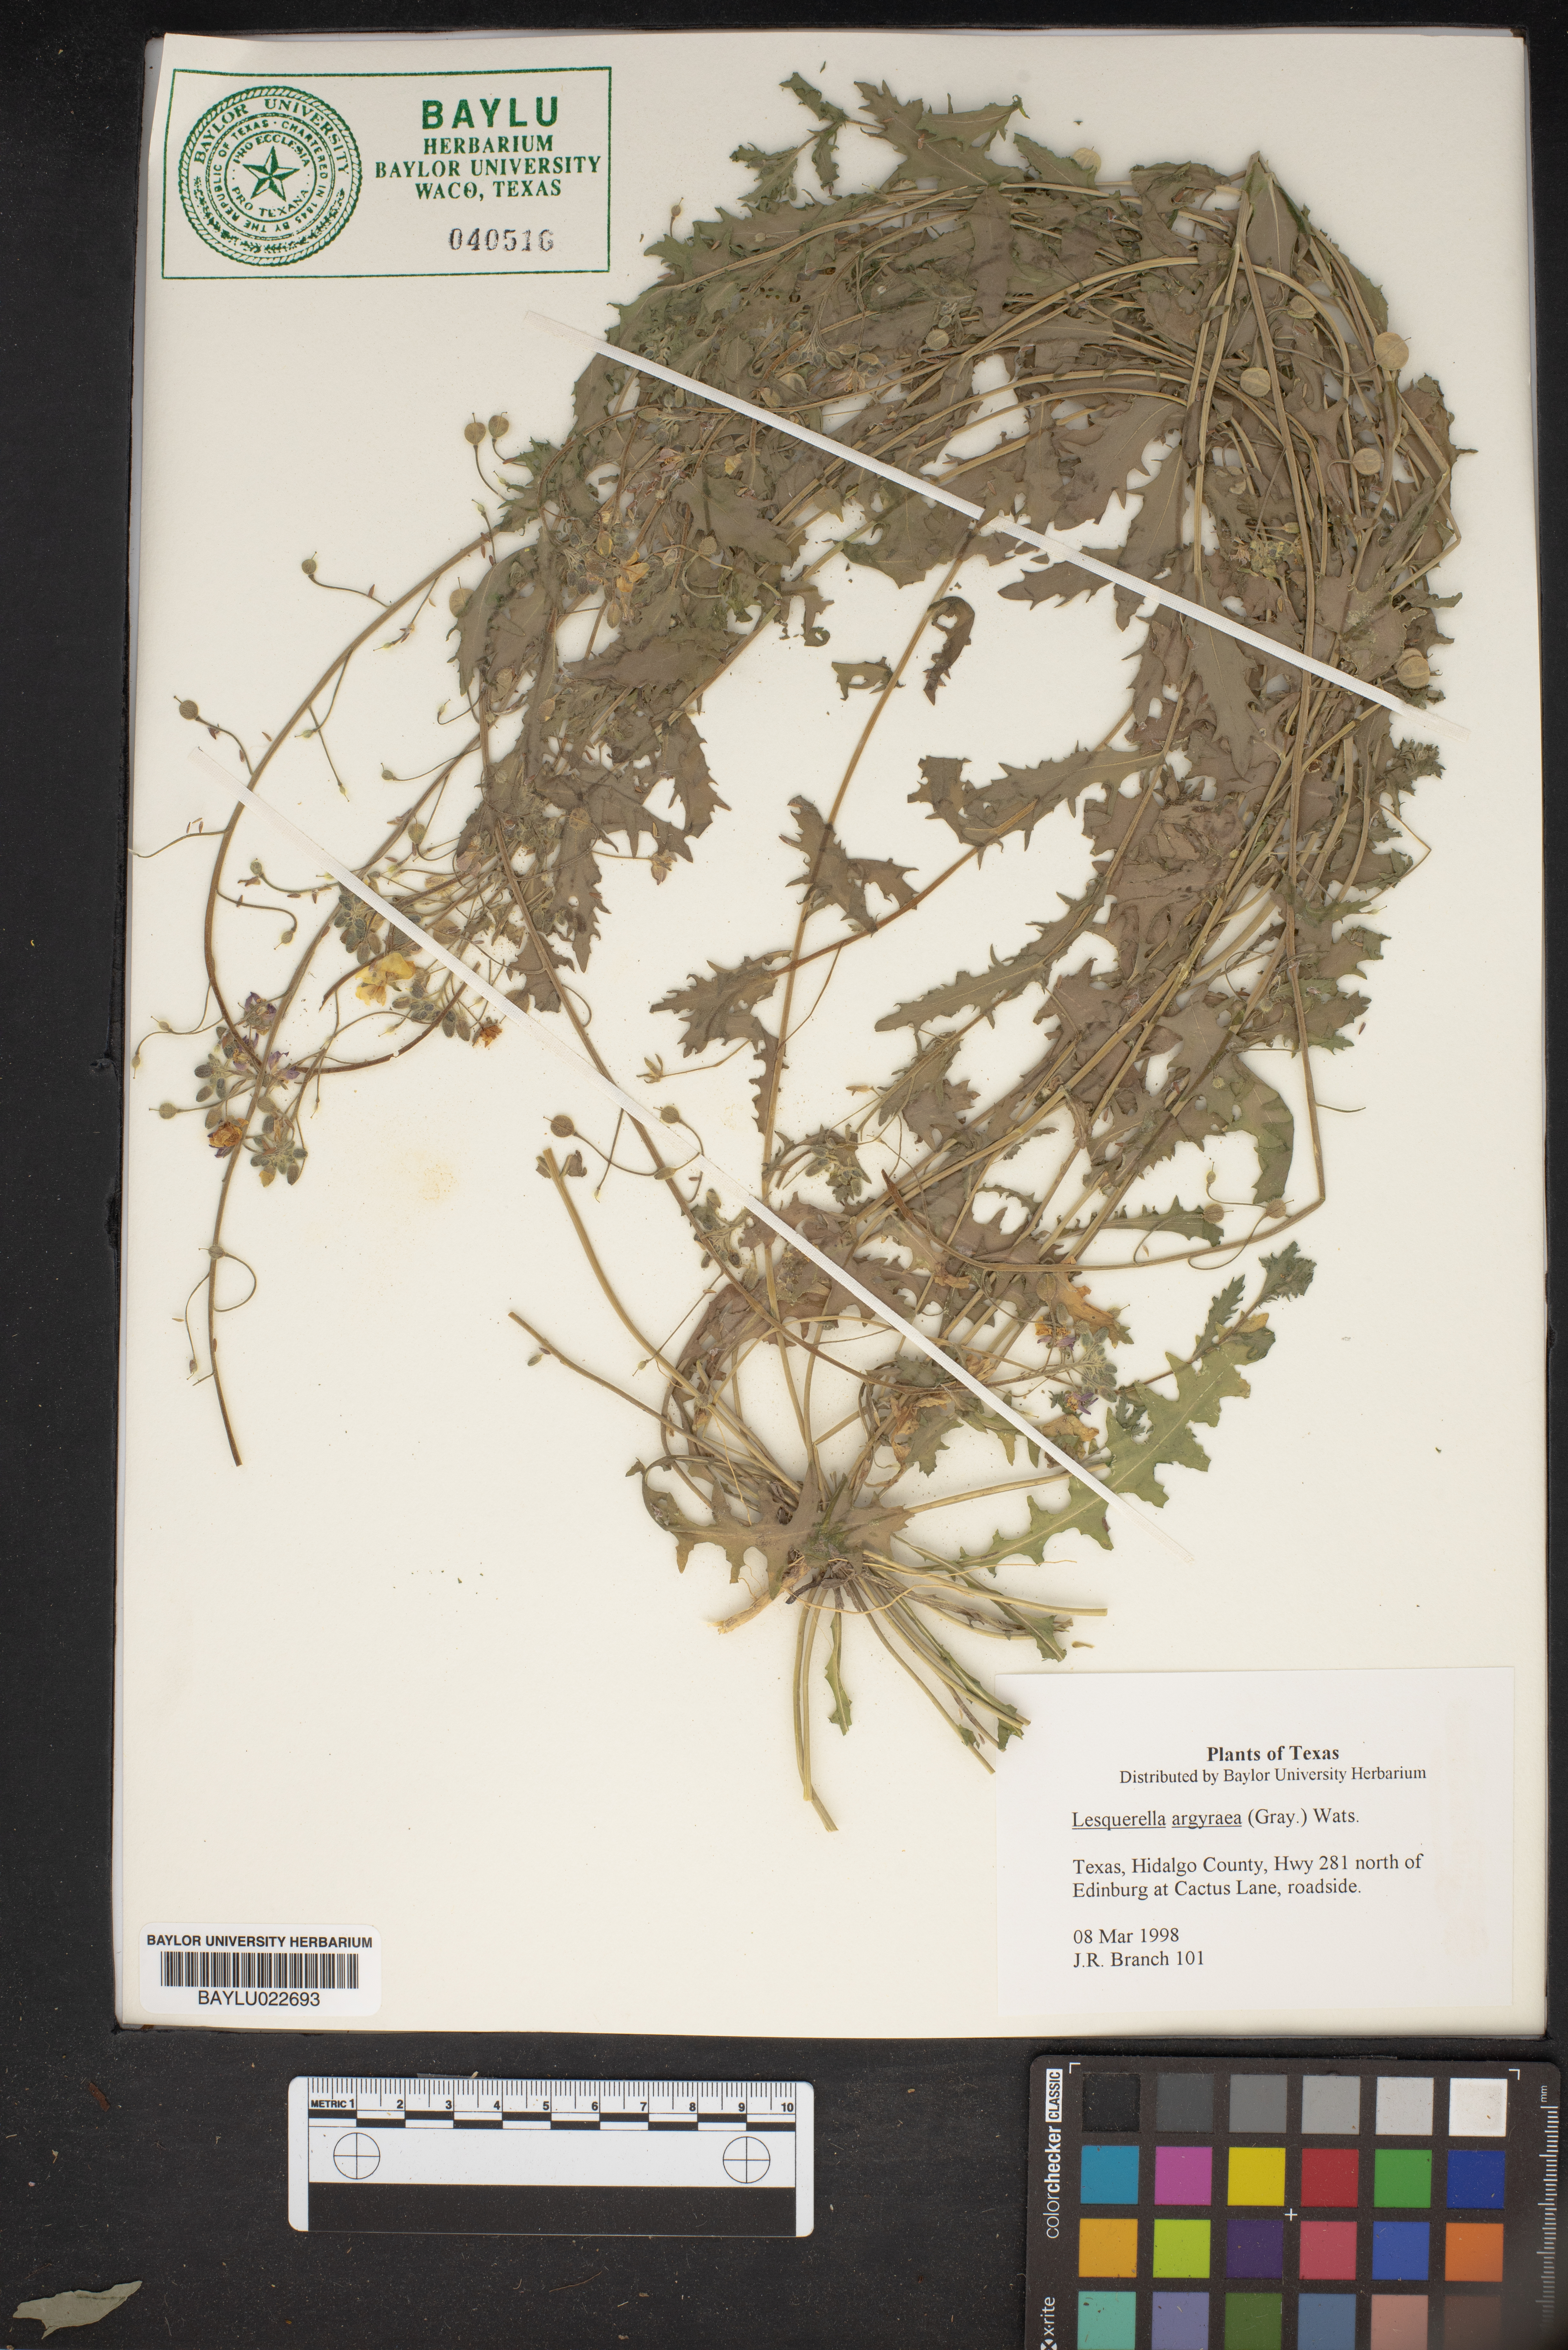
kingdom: Plantae
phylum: Tracheophyta
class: Magnoliopsida
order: Brassicales
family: Brassicaceae
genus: Physaria
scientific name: Physaria argyraea
